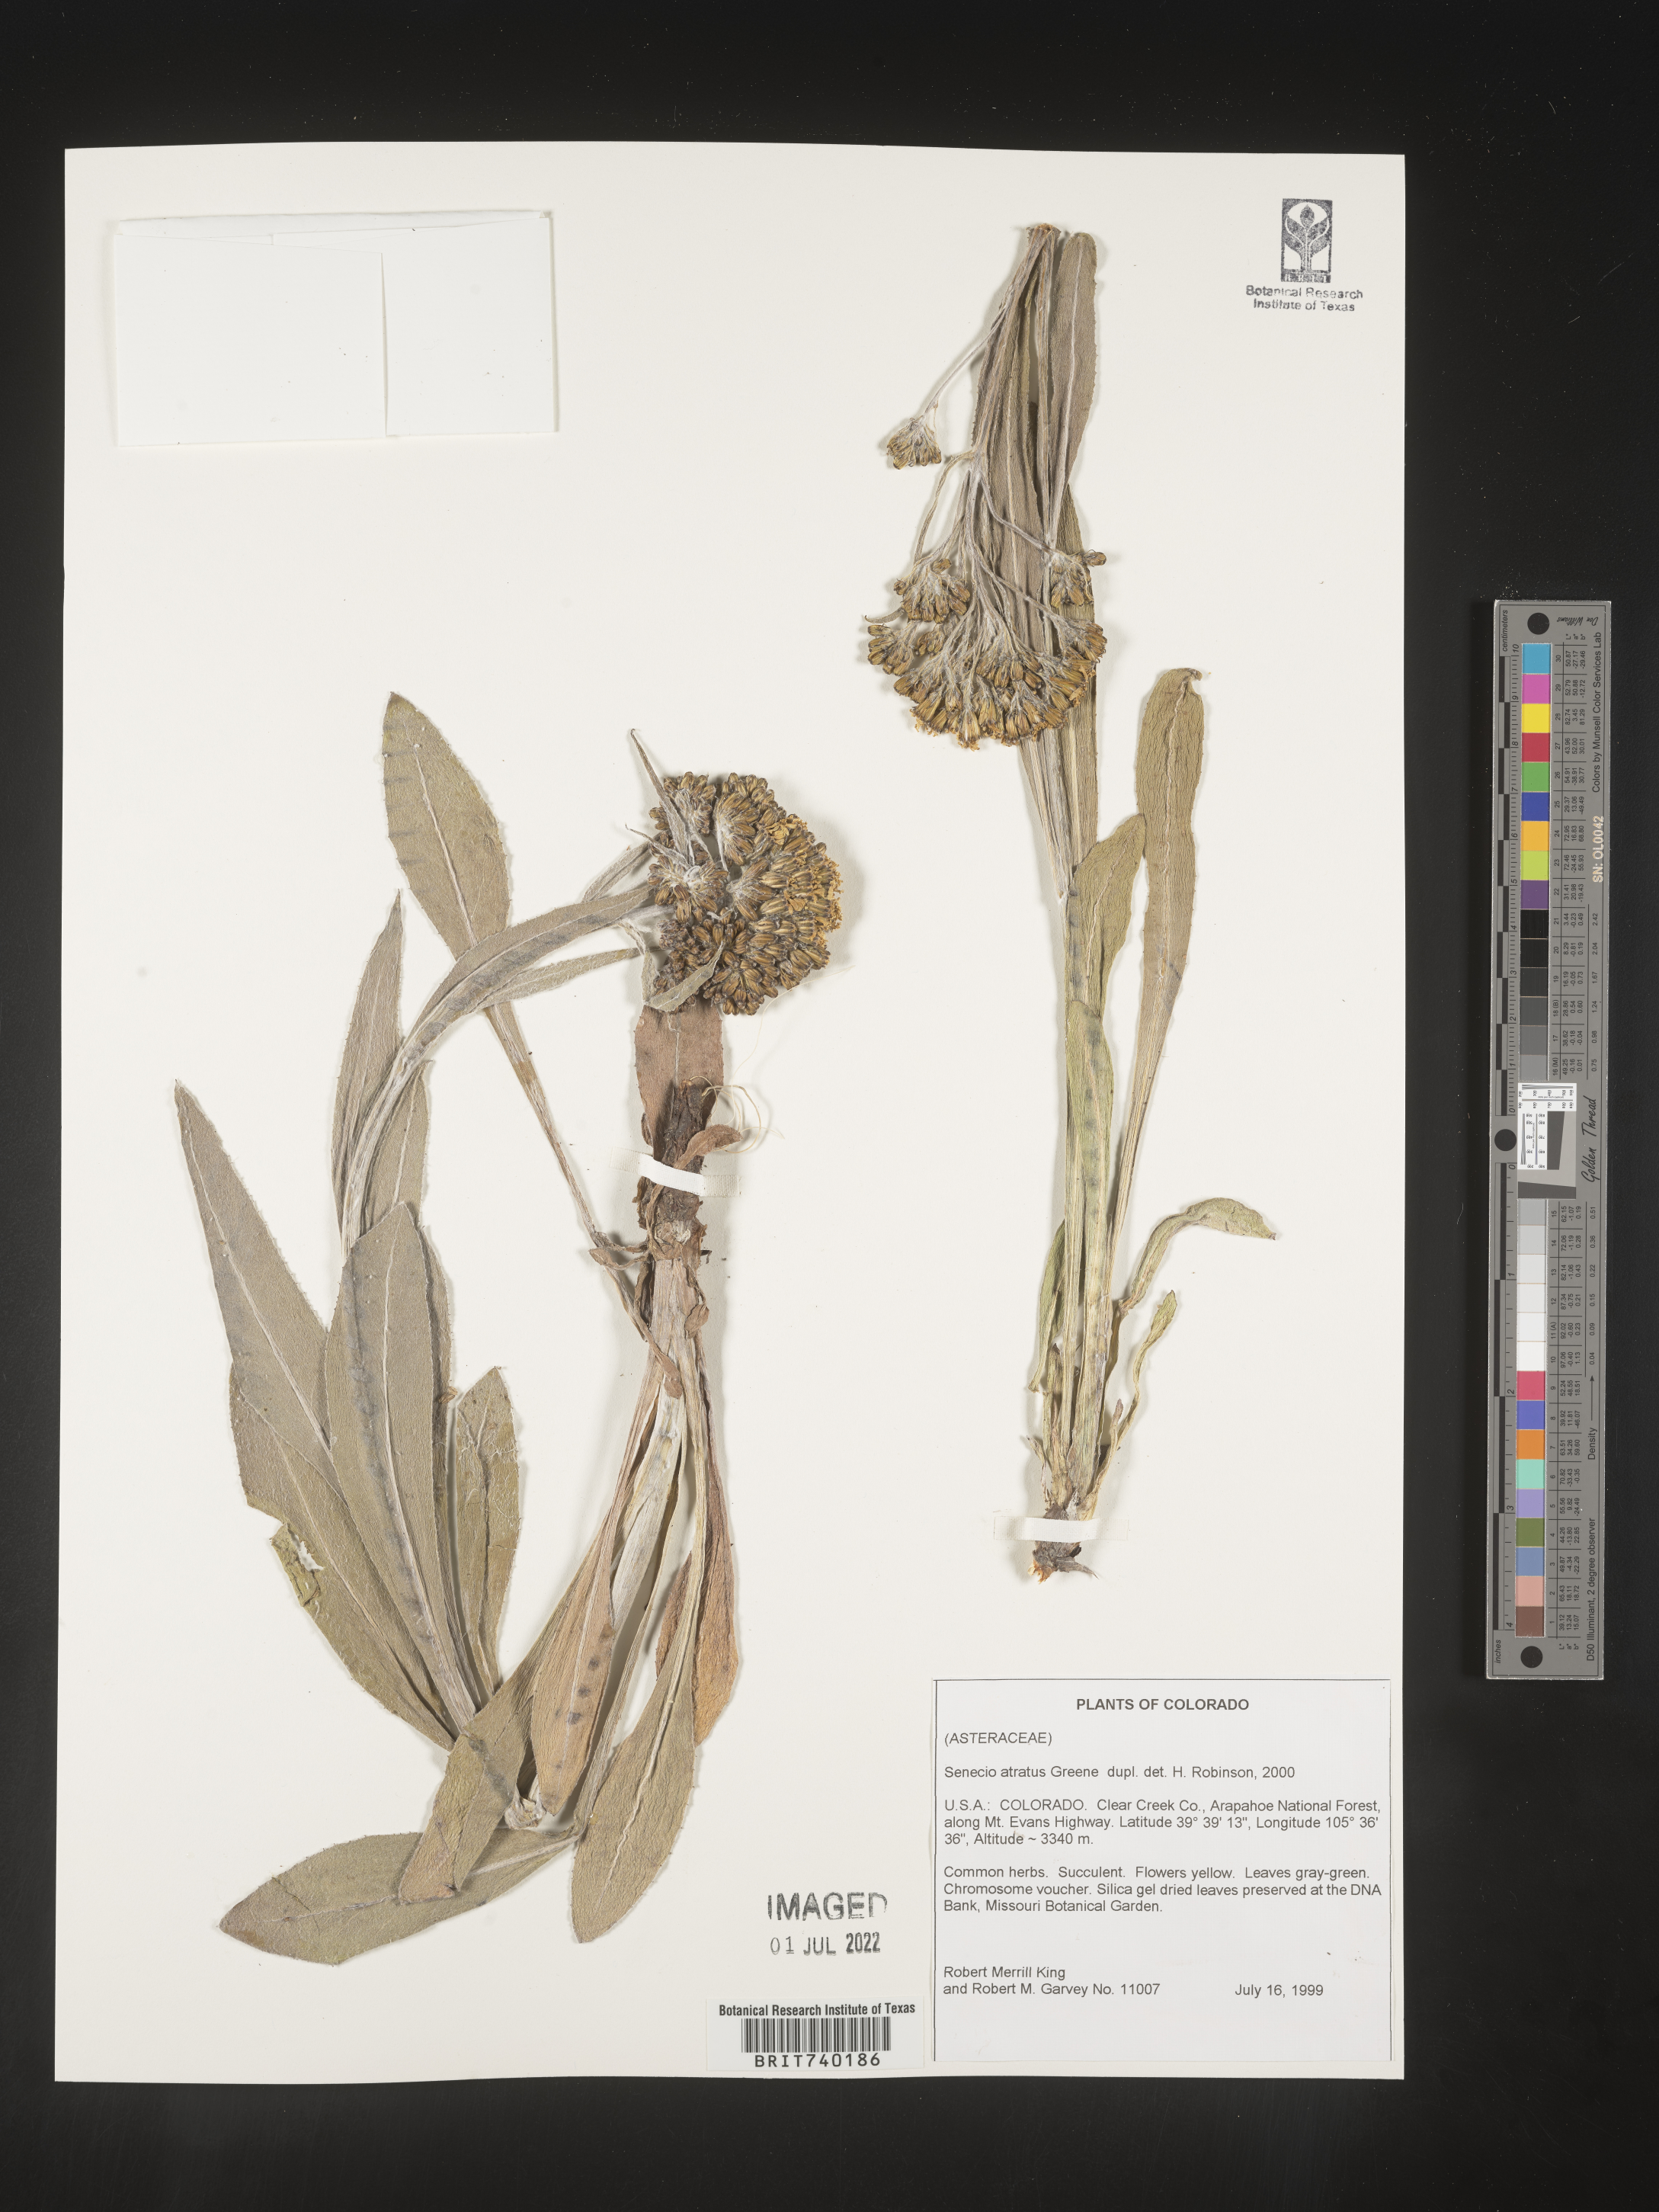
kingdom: Plantae
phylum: Tracheophyta
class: Magnoliopsida
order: Asterales
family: Asteraceae
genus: Senecio
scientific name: Senecio atratus
